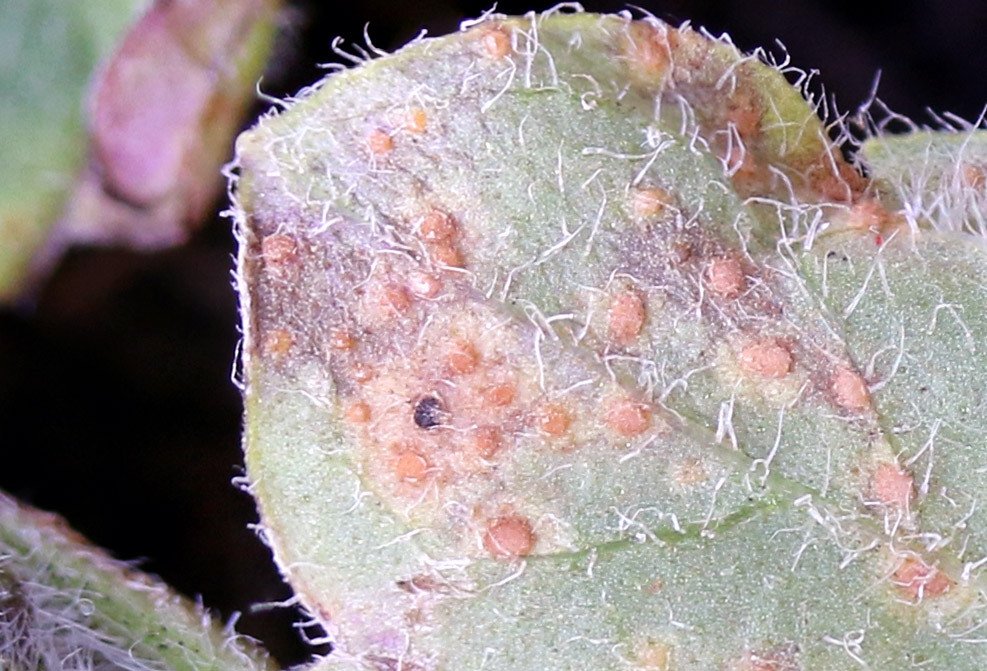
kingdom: Fungi
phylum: Basidiomycota
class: Pucciniomycetes
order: Pucciniales
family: Pucciniaceae
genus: Puccinia
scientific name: Puccinia menthae
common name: Mint rust
